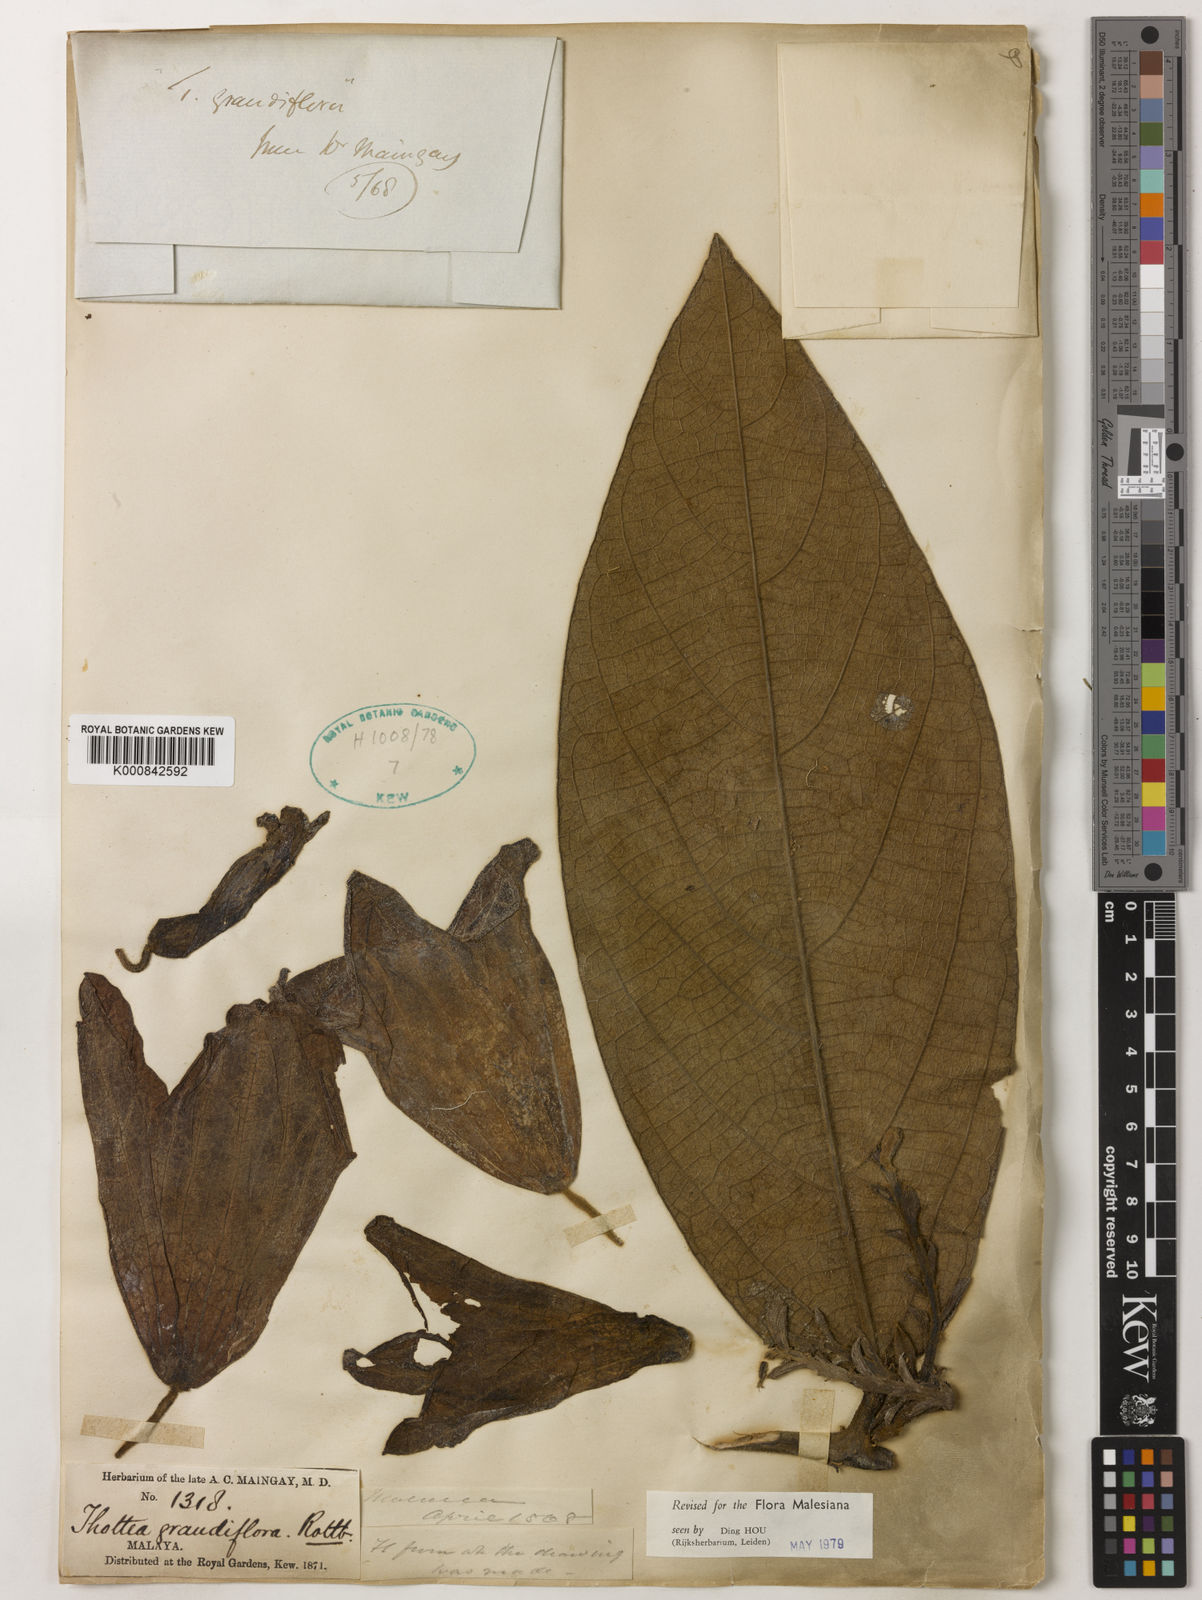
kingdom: Plantae
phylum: Tracheophyta
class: Magnoliopsida
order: Piperales
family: Aristolochiaceae
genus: Thottea
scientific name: Thottea grandiflora
